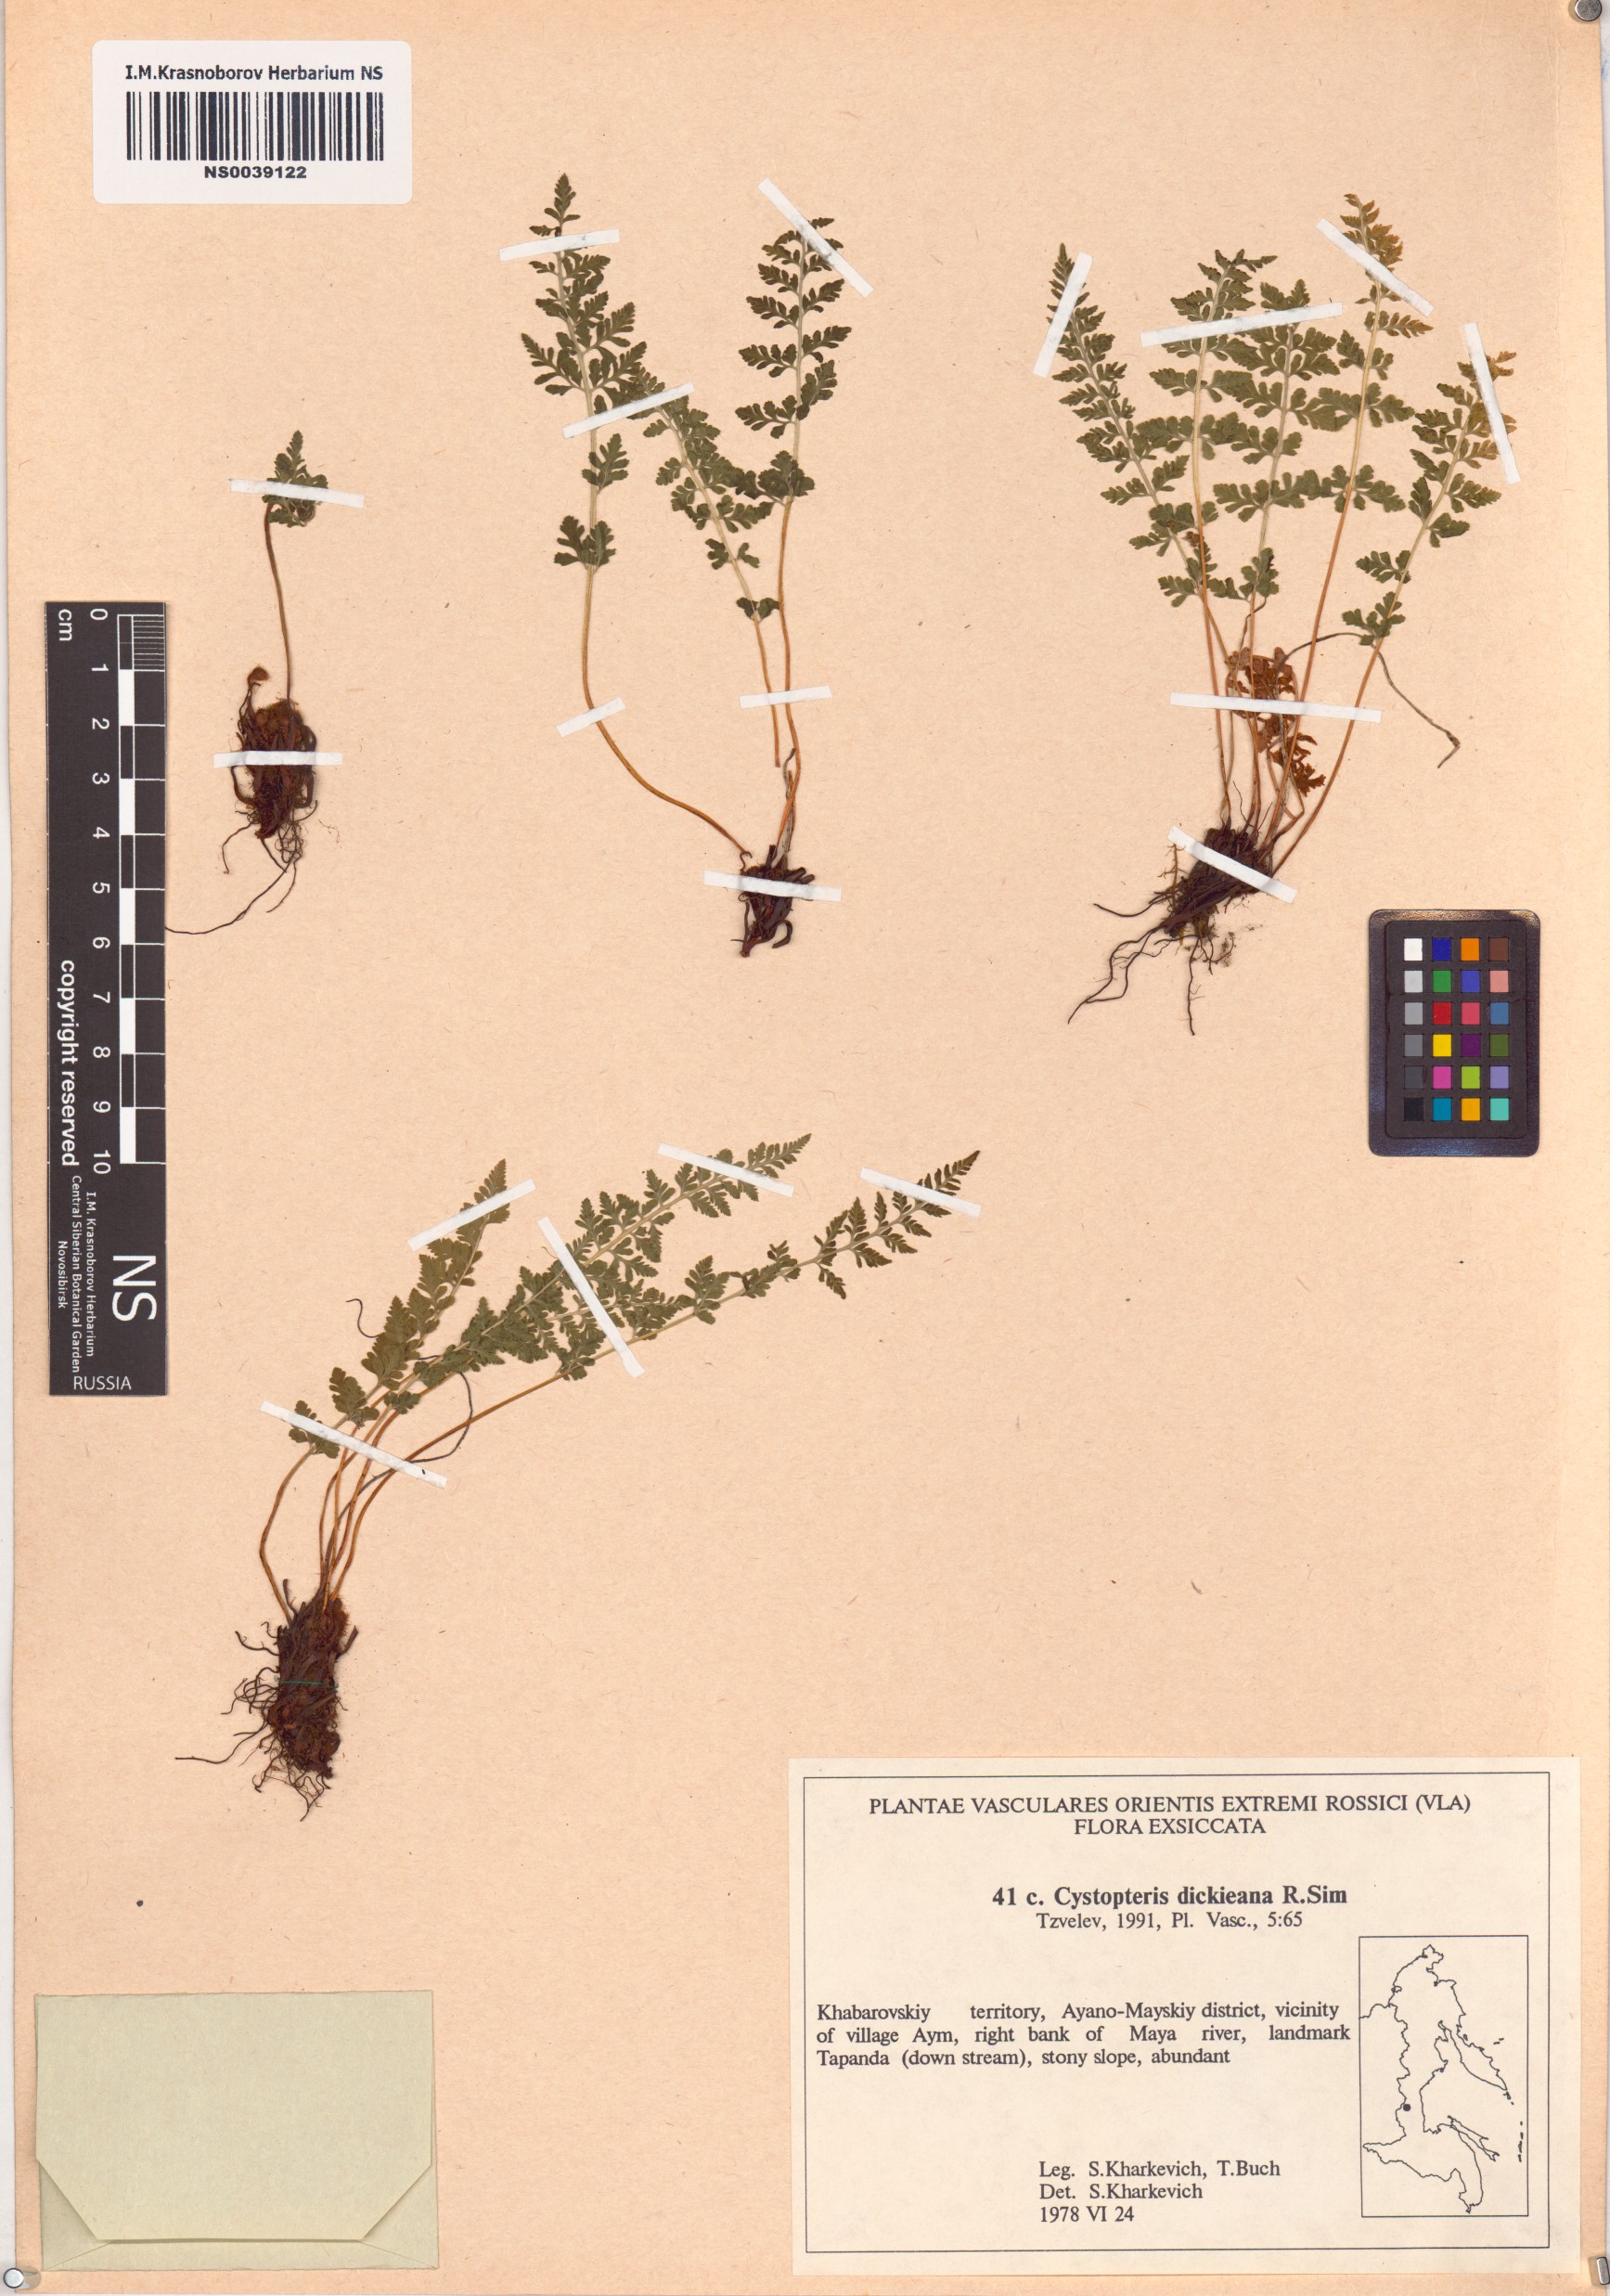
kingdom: Plantae
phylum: Tracheophyta
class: Polypodiopsida
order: Polypodiales
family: Cystopteridaceae
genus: Cystopteris
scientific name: Cystopteris dickieana
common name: Dickie's bladder-fern
